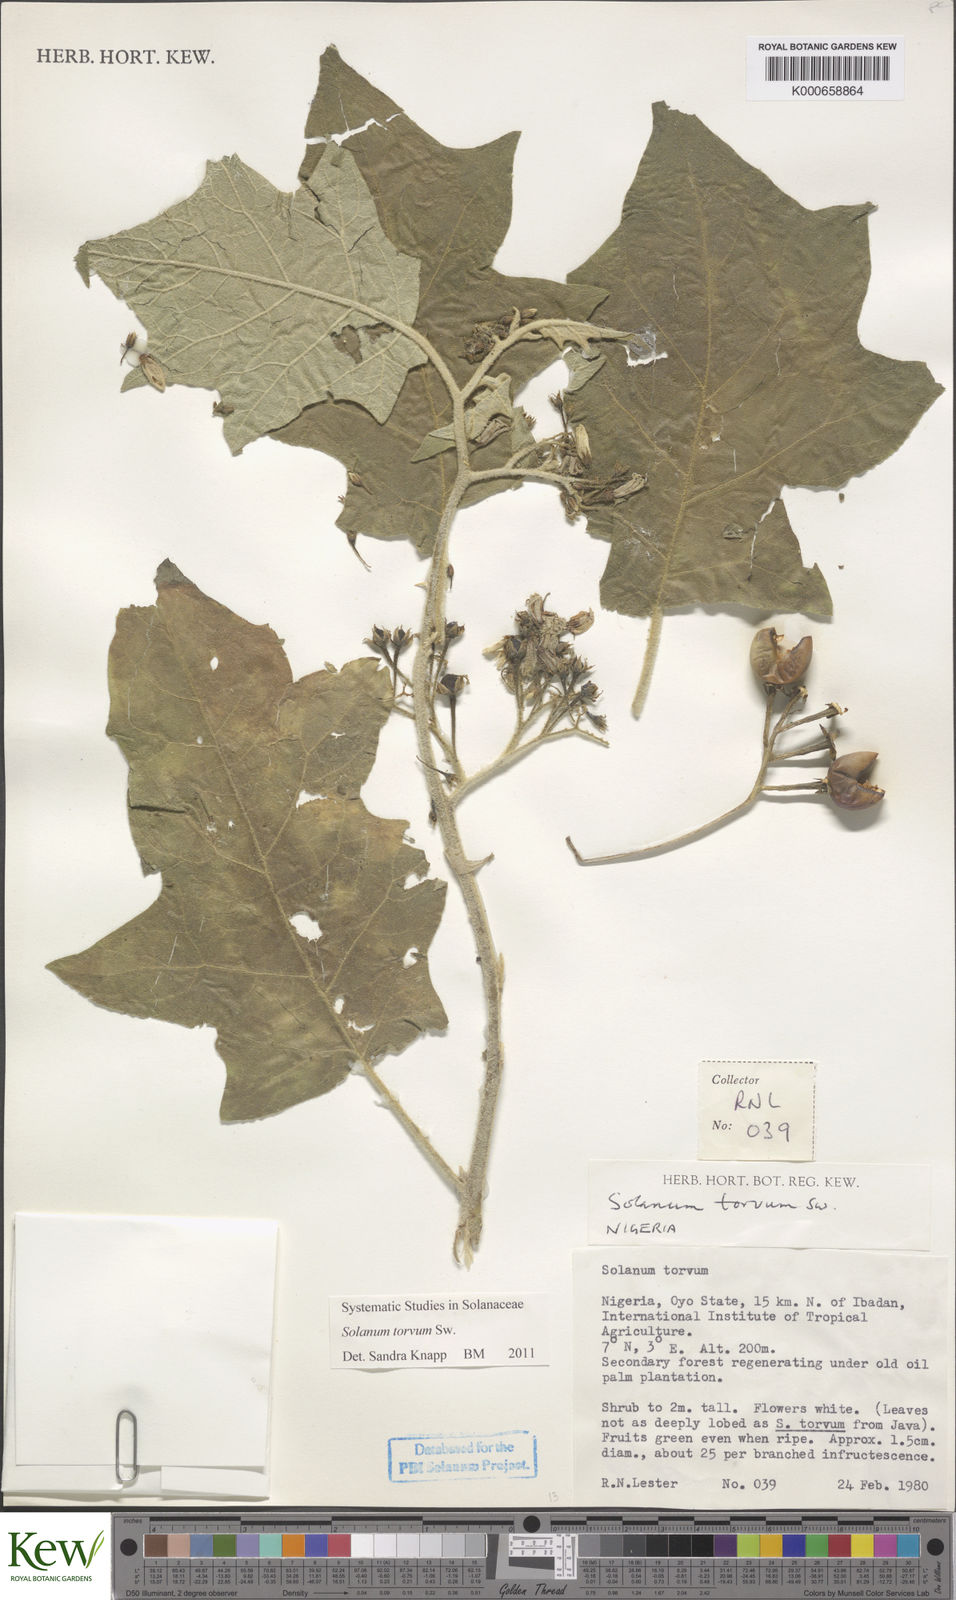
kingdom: Plantae
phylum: Tracheophyta
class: Magnoliopsida
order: Solanales
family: Solanaceae
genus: Solanum
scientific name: Solanum torvum
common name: Turkey berry
